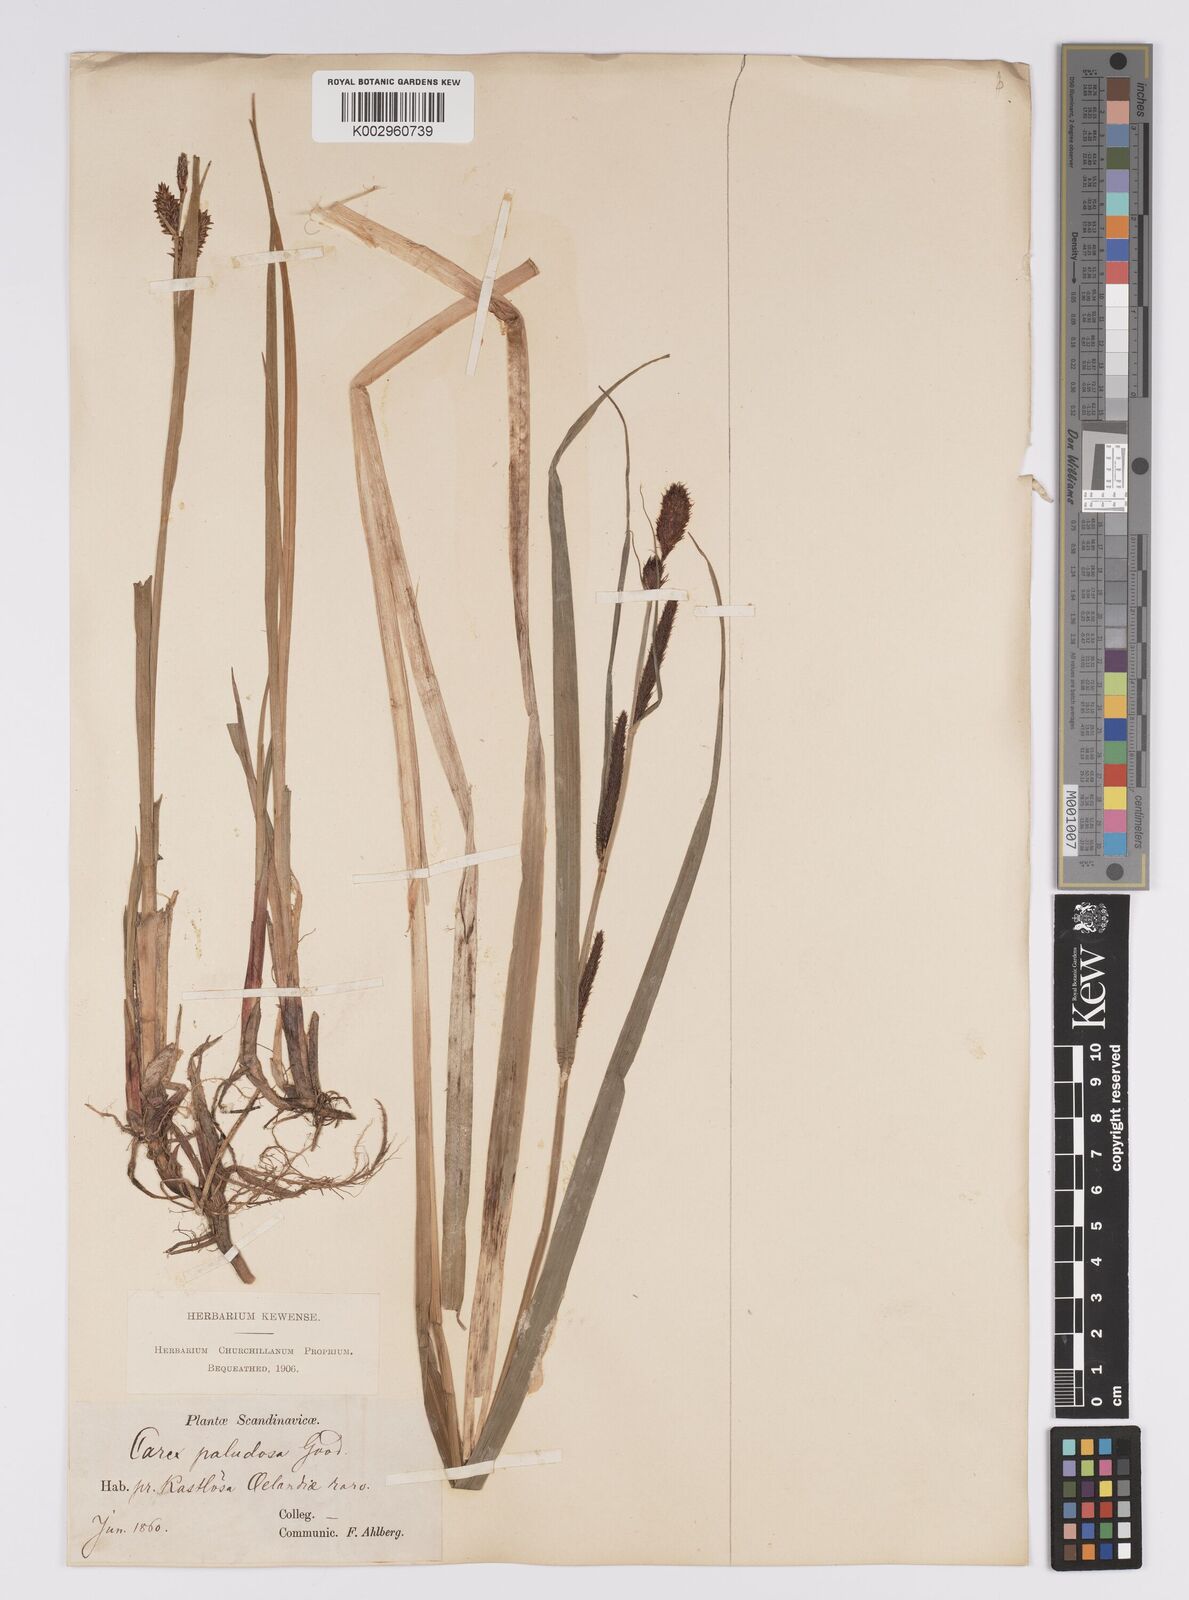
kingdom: Plantae
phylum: Tracheophyta
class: Liliopsida
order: Poales
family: Cyperaceae
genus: Carex
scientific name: Carex acutiformis
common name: Lesser pond-sedge
